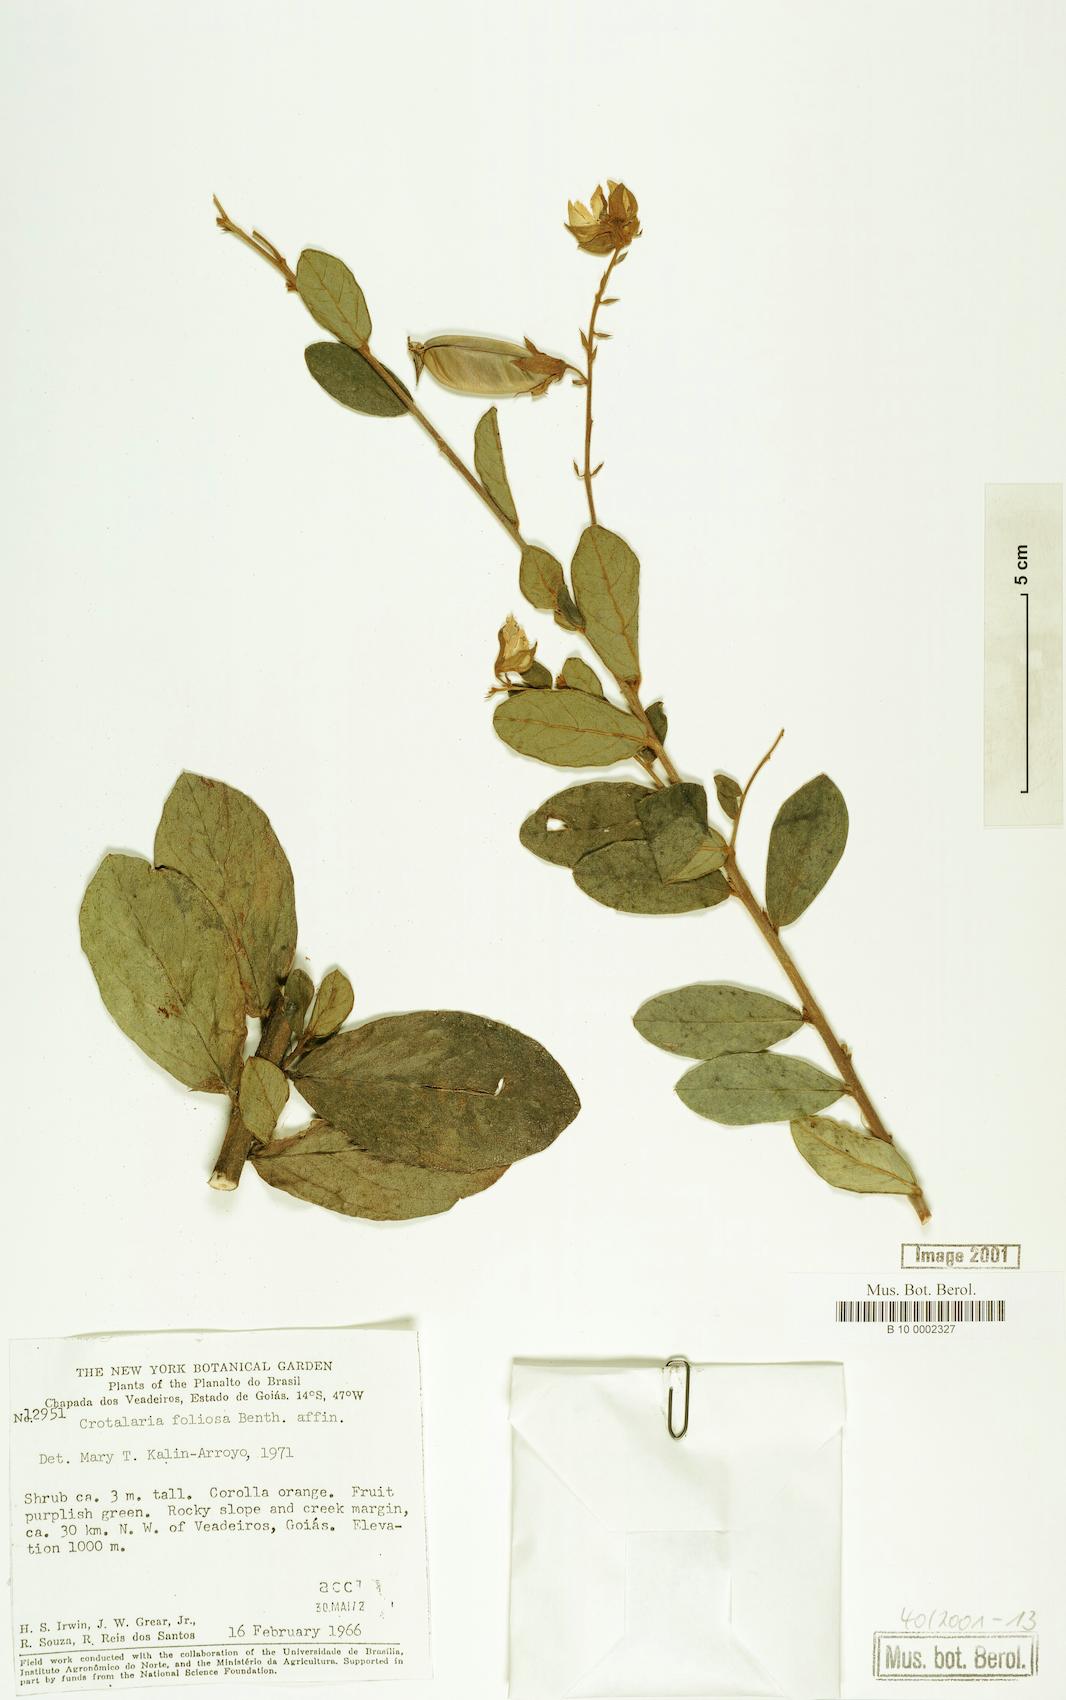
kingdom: Plantae
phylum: Tracheophyta
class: Magnoliopsida
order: Fabales
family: Fabaceae
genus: Crotalaria
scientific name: Crotalaria martiana
